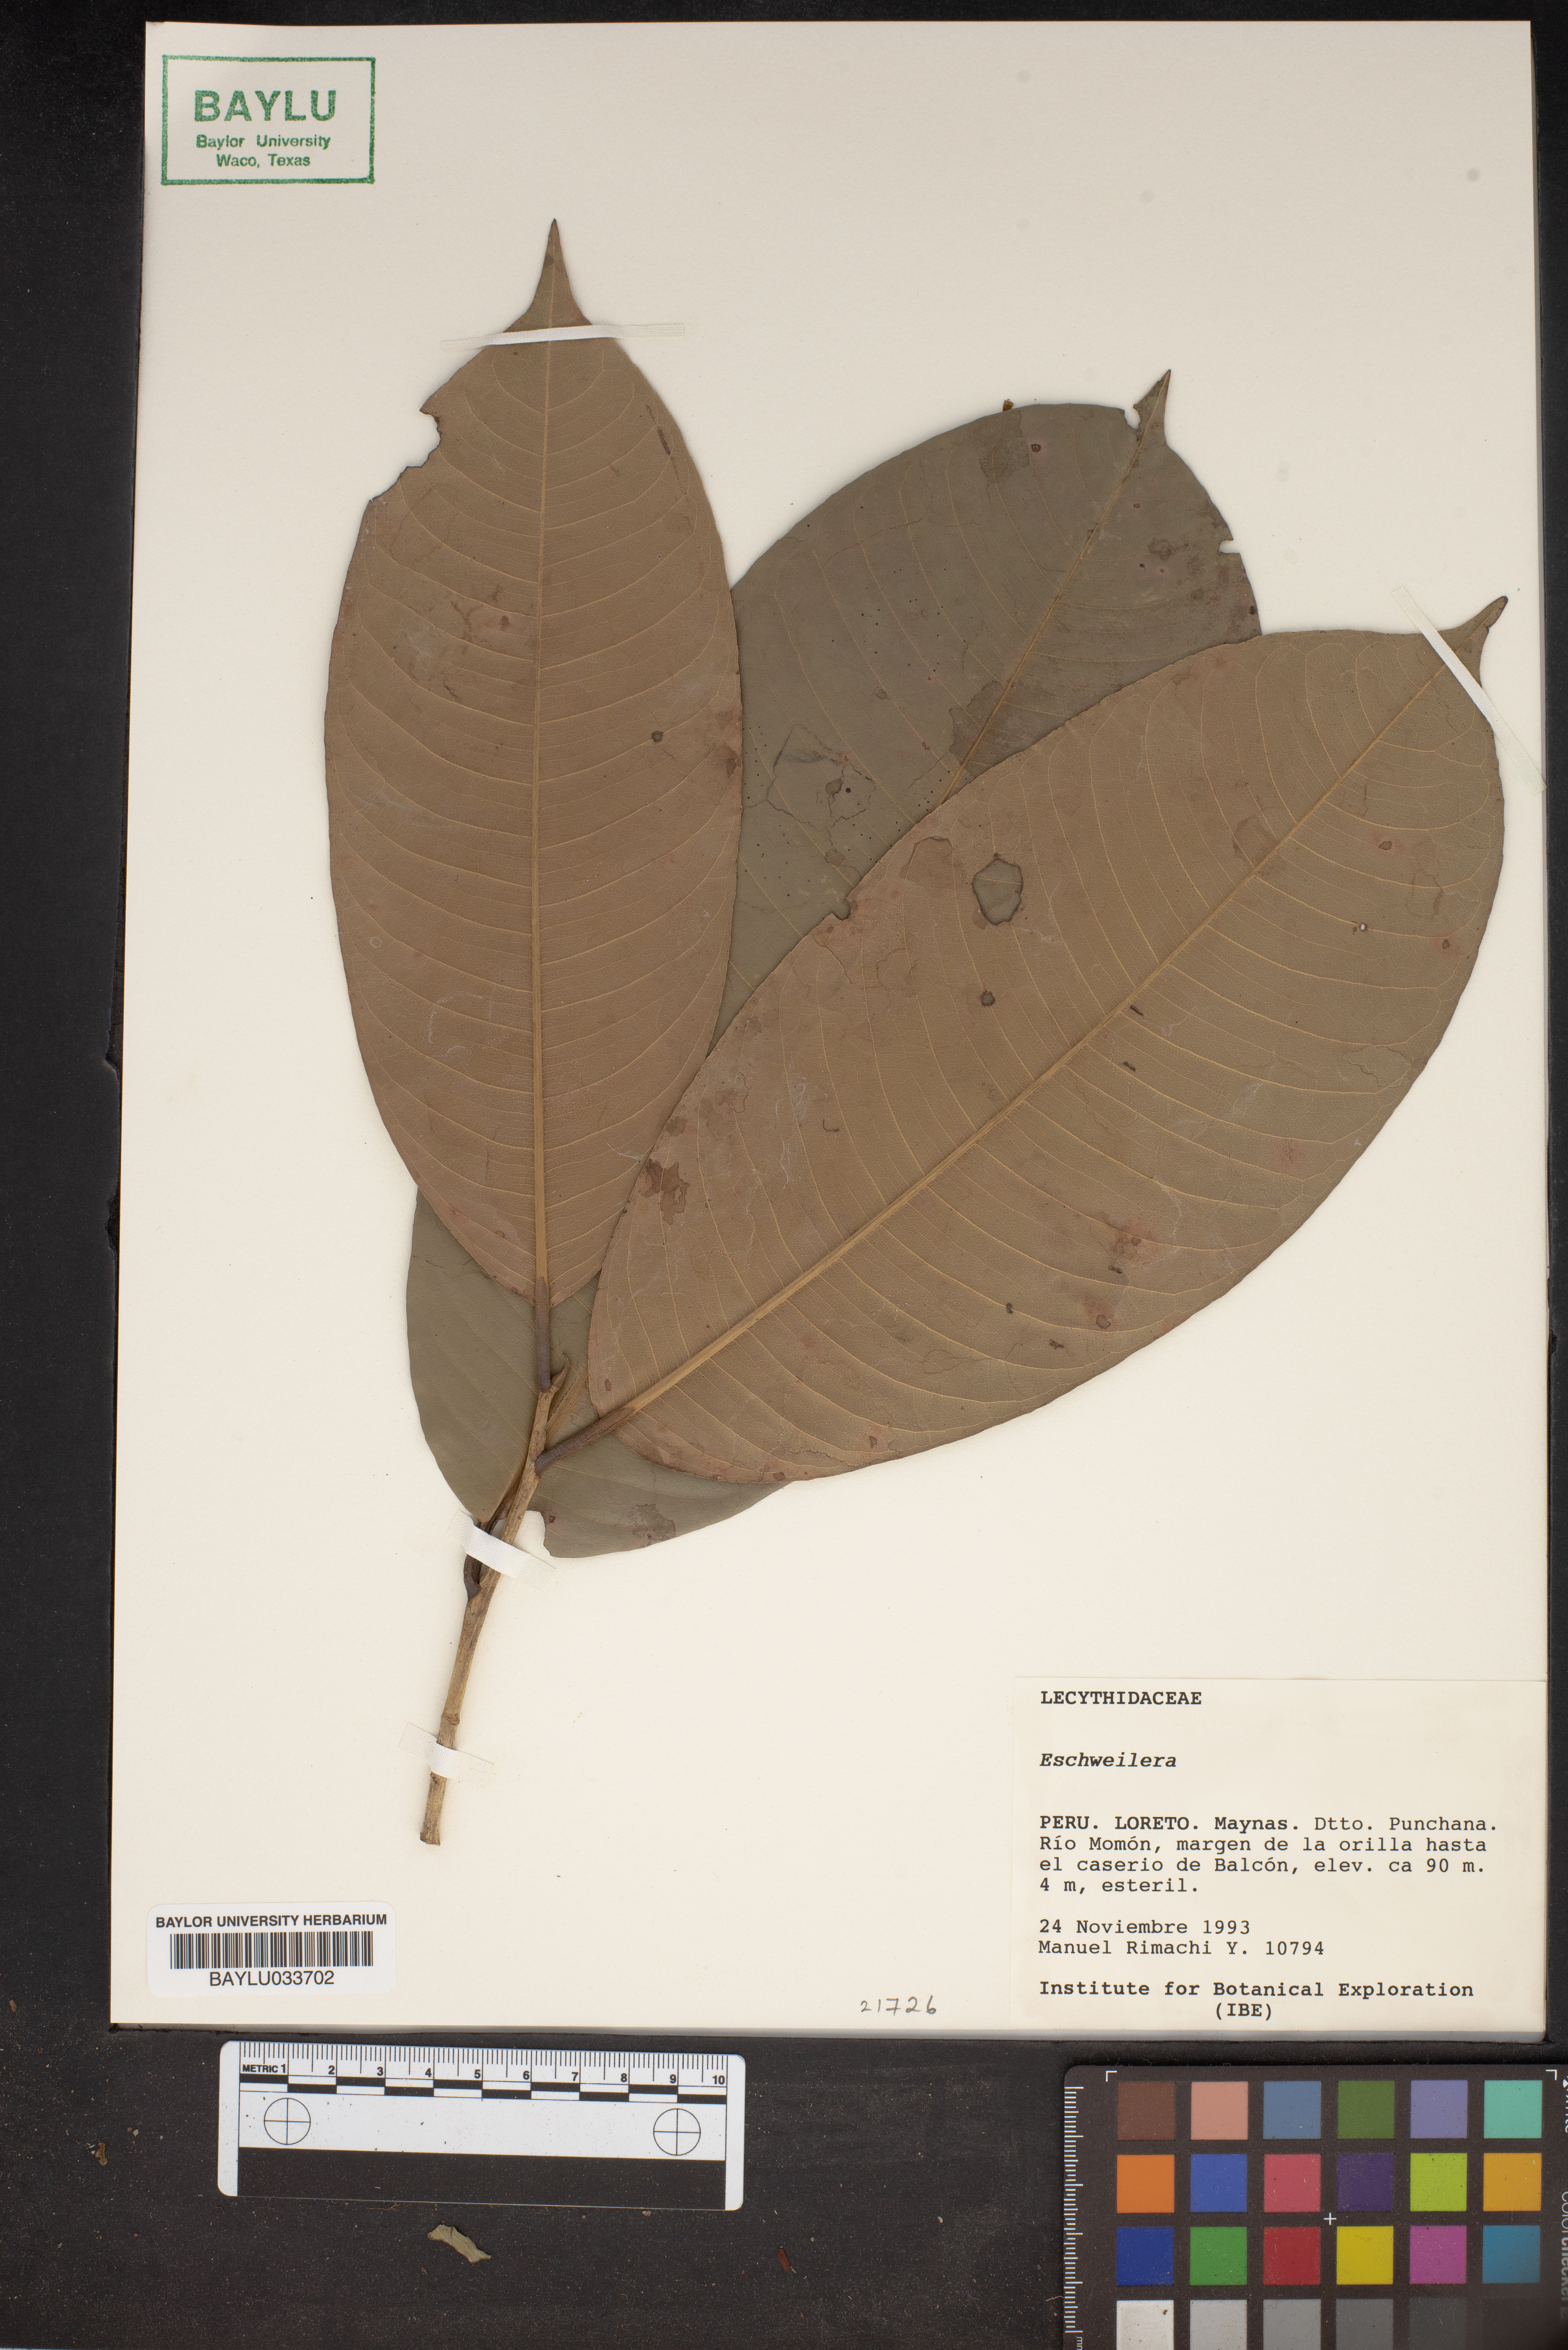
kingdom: Plantae
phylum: Tracheophyta
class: Magnoliopsida
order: Ericales
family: Lecythidaceae
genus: Eschweilera
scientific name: Eschweilera
